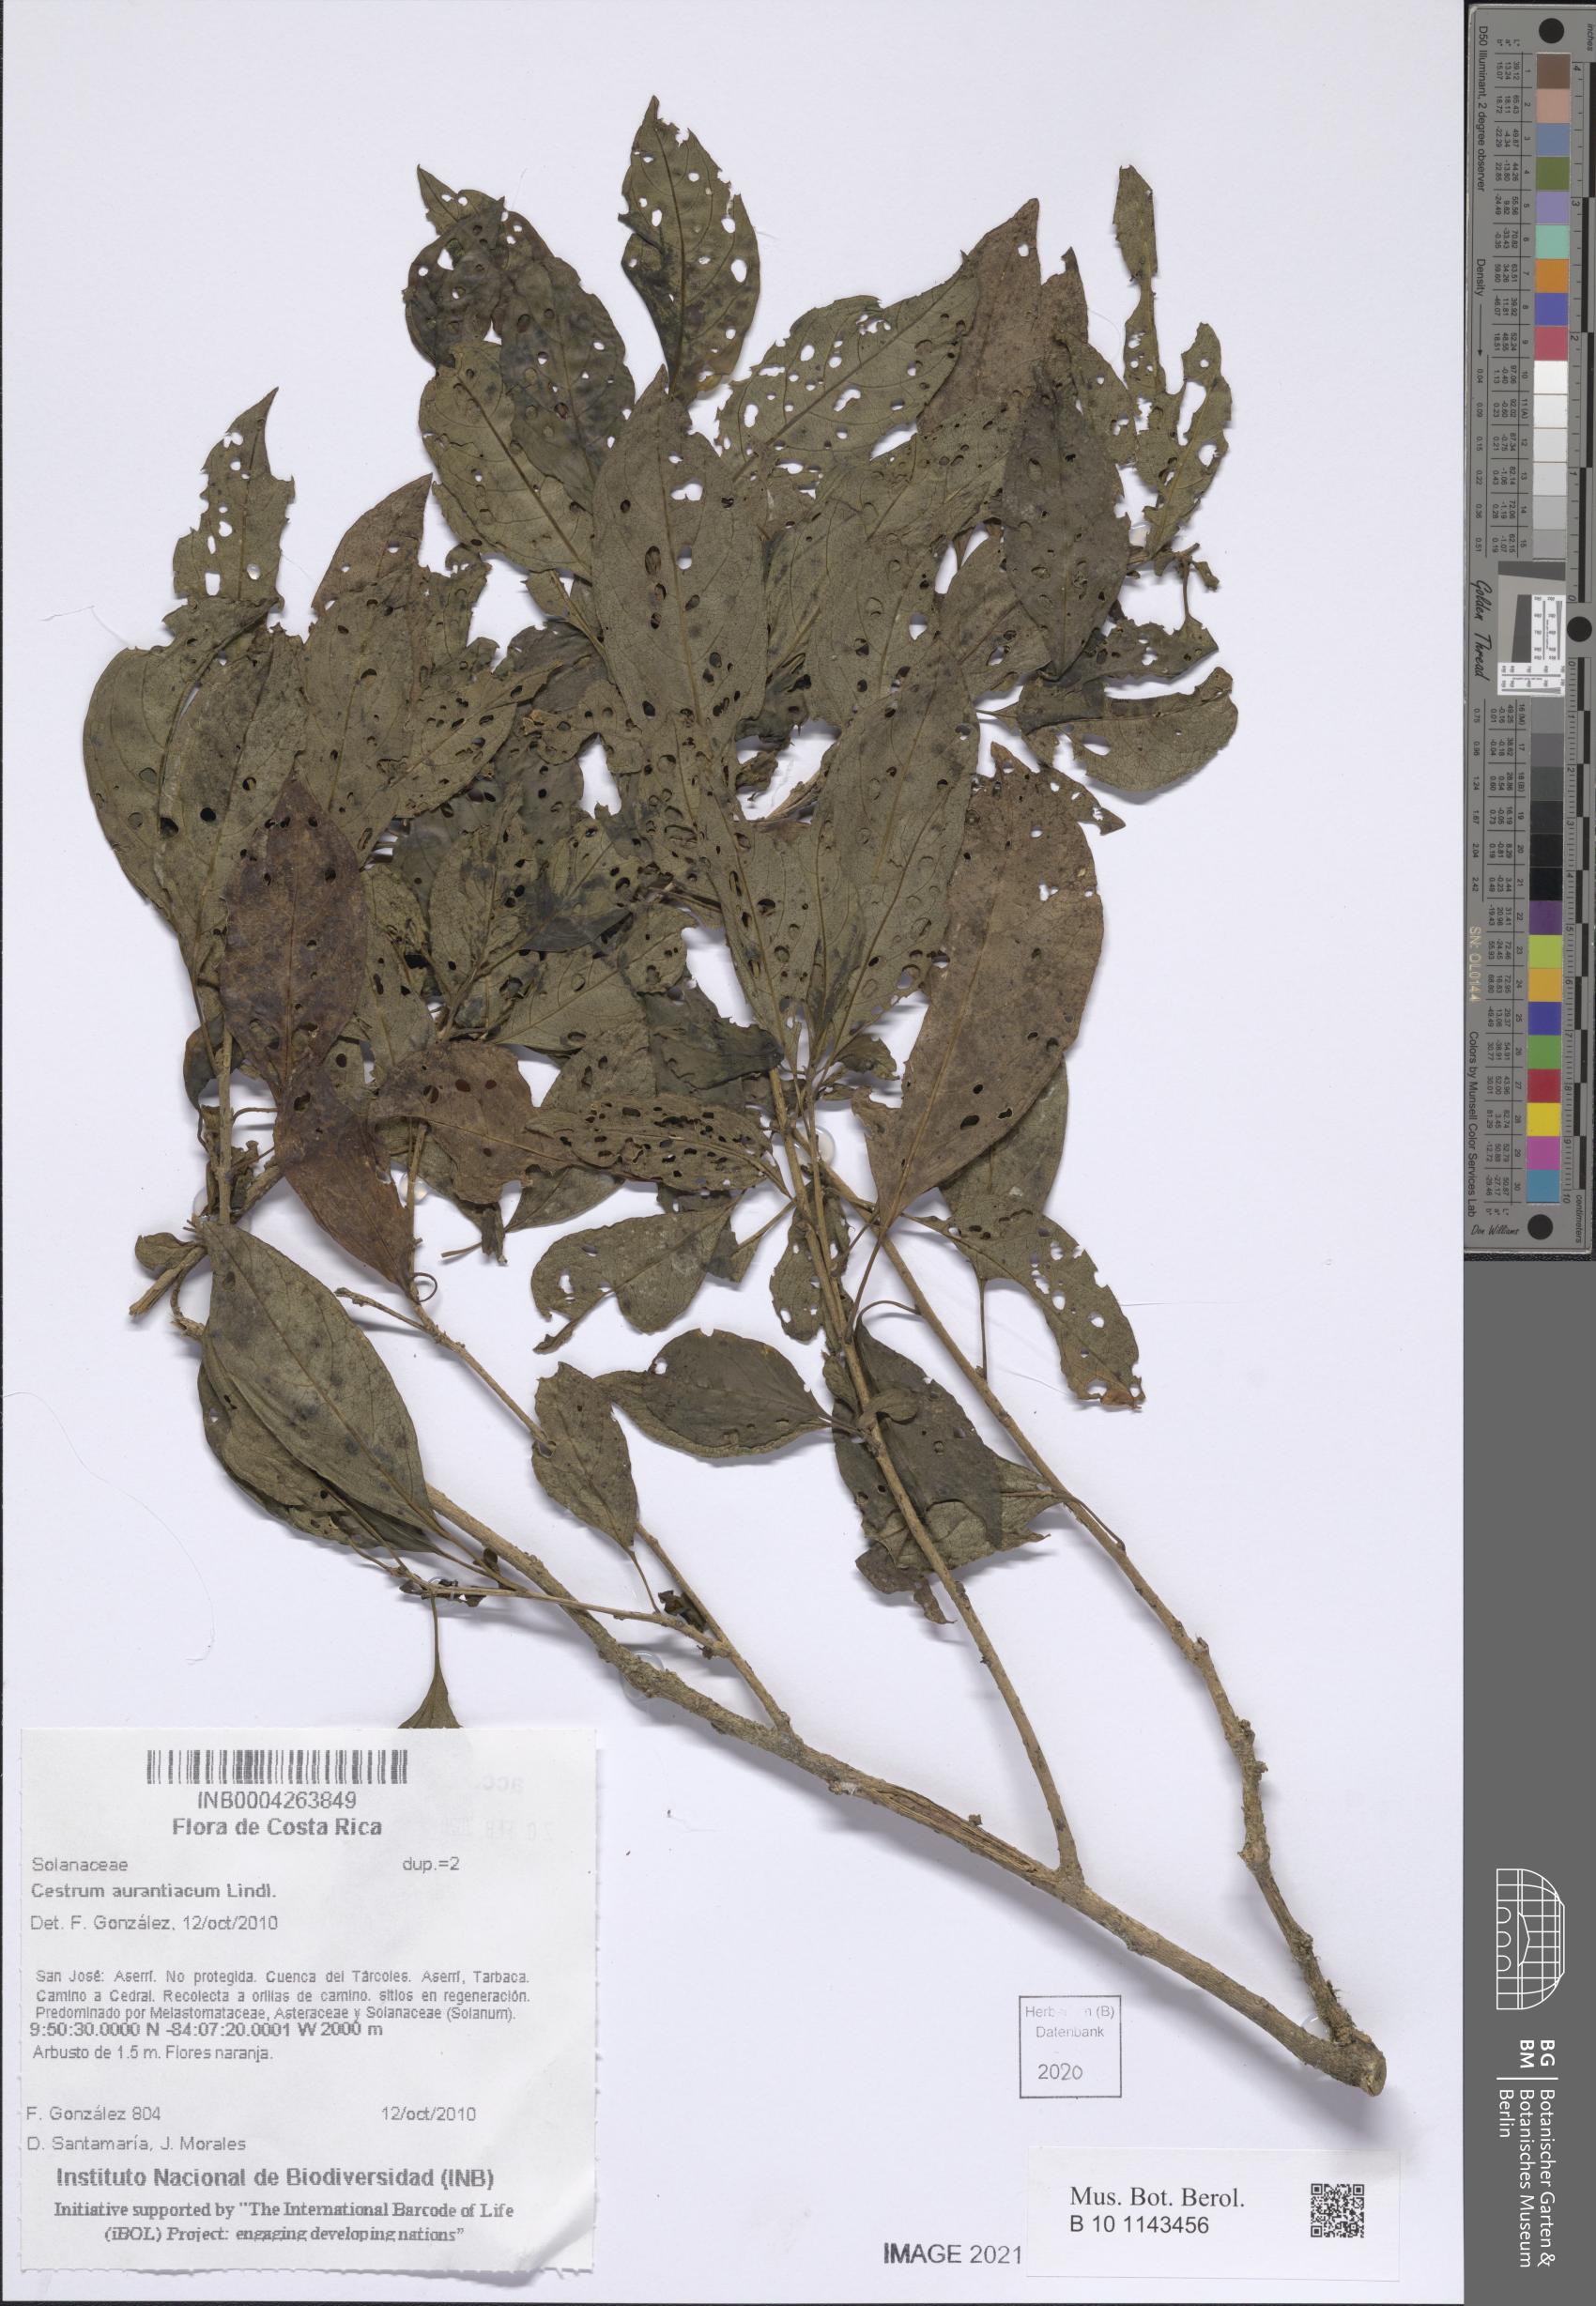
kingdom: Plantae
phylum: Tracheophyta
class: Magnoliopsida
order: Solanales
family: Solanaceae
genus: Cestrum
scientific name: Cestrum aurantiacum
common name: Orange cestrum
